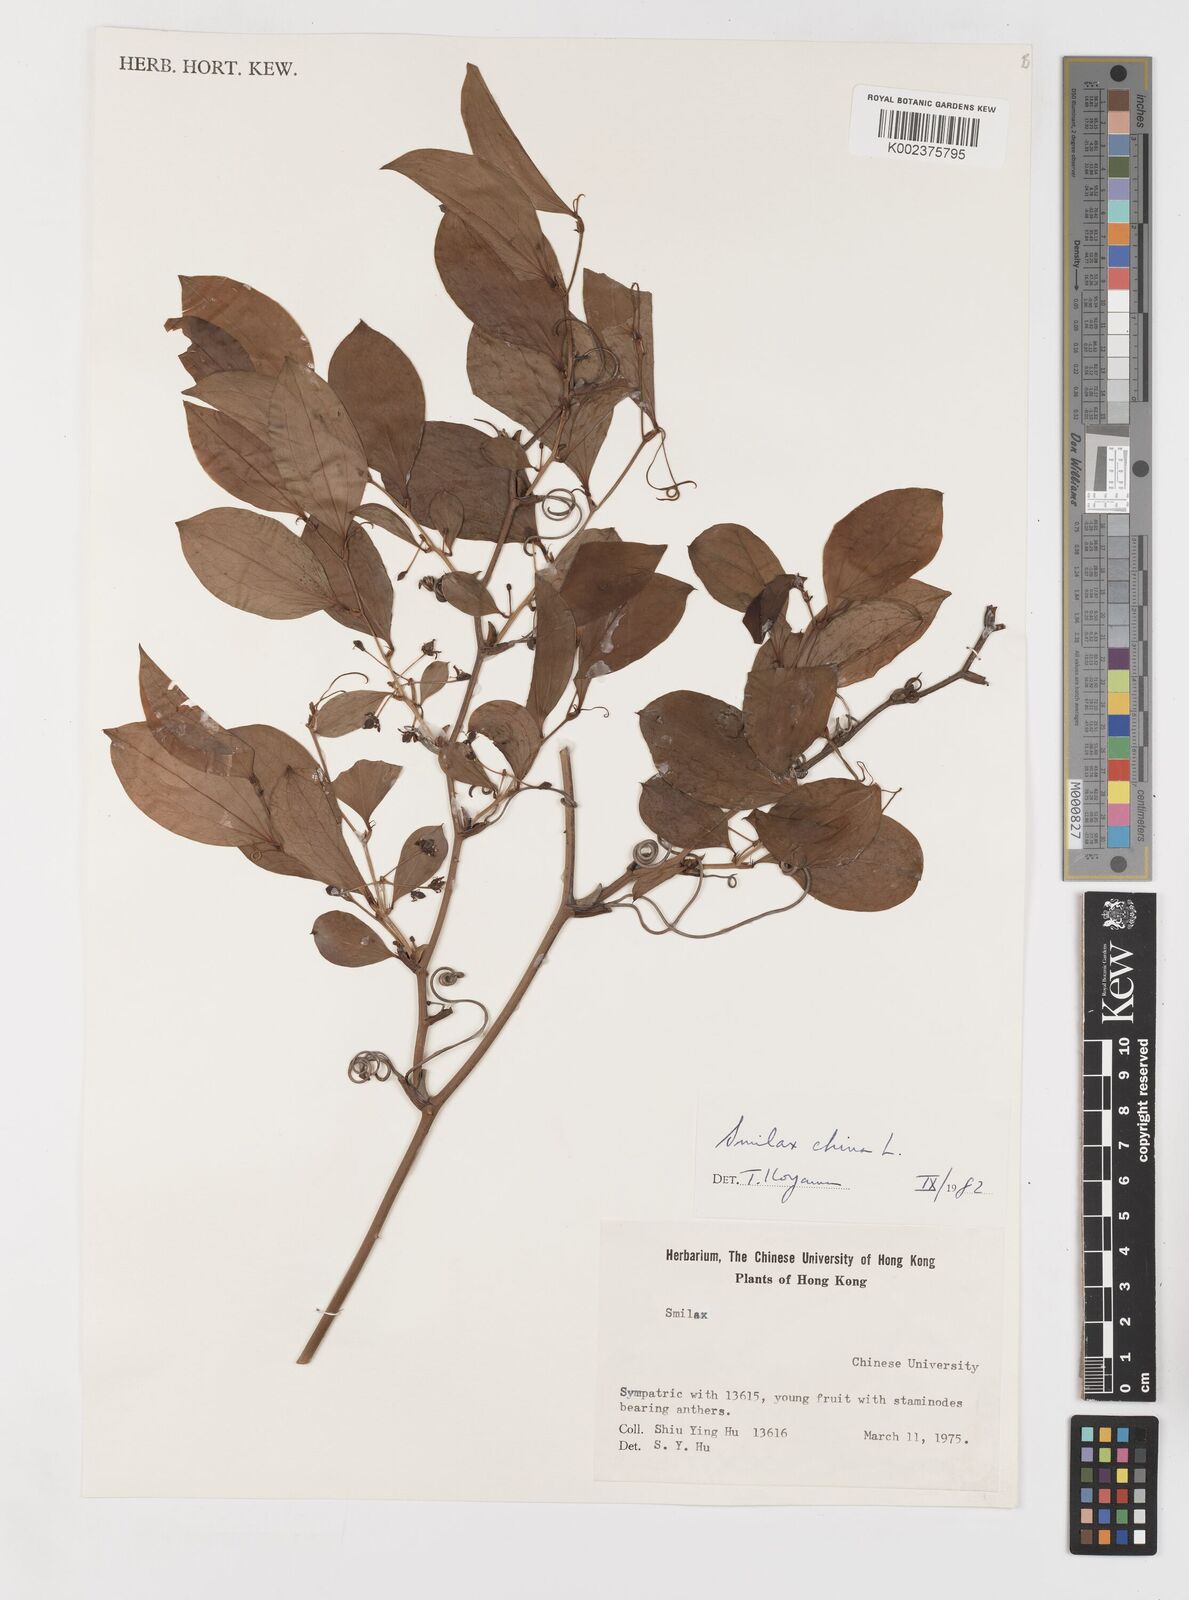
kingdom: Plantae
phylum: Tracheophyta
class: Liliopsida
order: Liliales
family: Smilacaceae
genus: Smilax
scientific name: Smilax china
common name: Chinaroot
